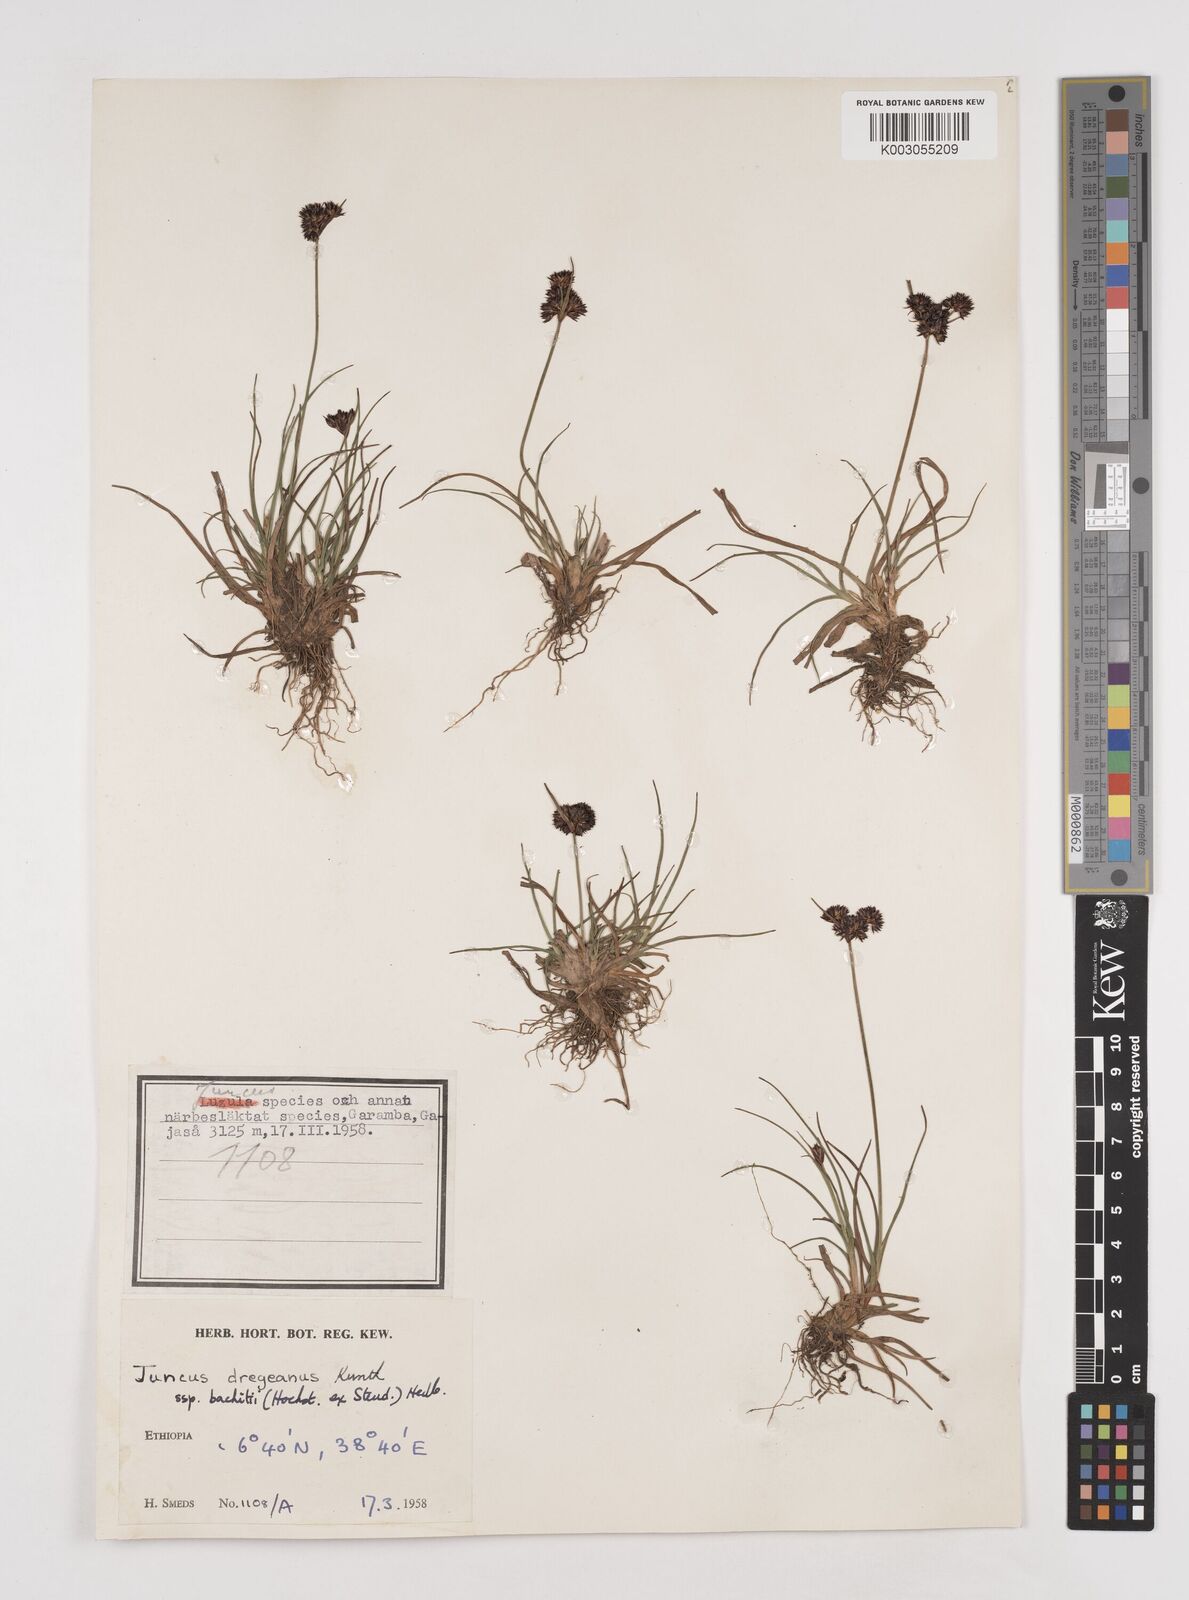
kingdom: Plantae
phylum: Tracheophyta
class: Liliopsida
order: Poales
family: Juncaceae
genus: Juncus
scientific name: Juncus dregeanus
